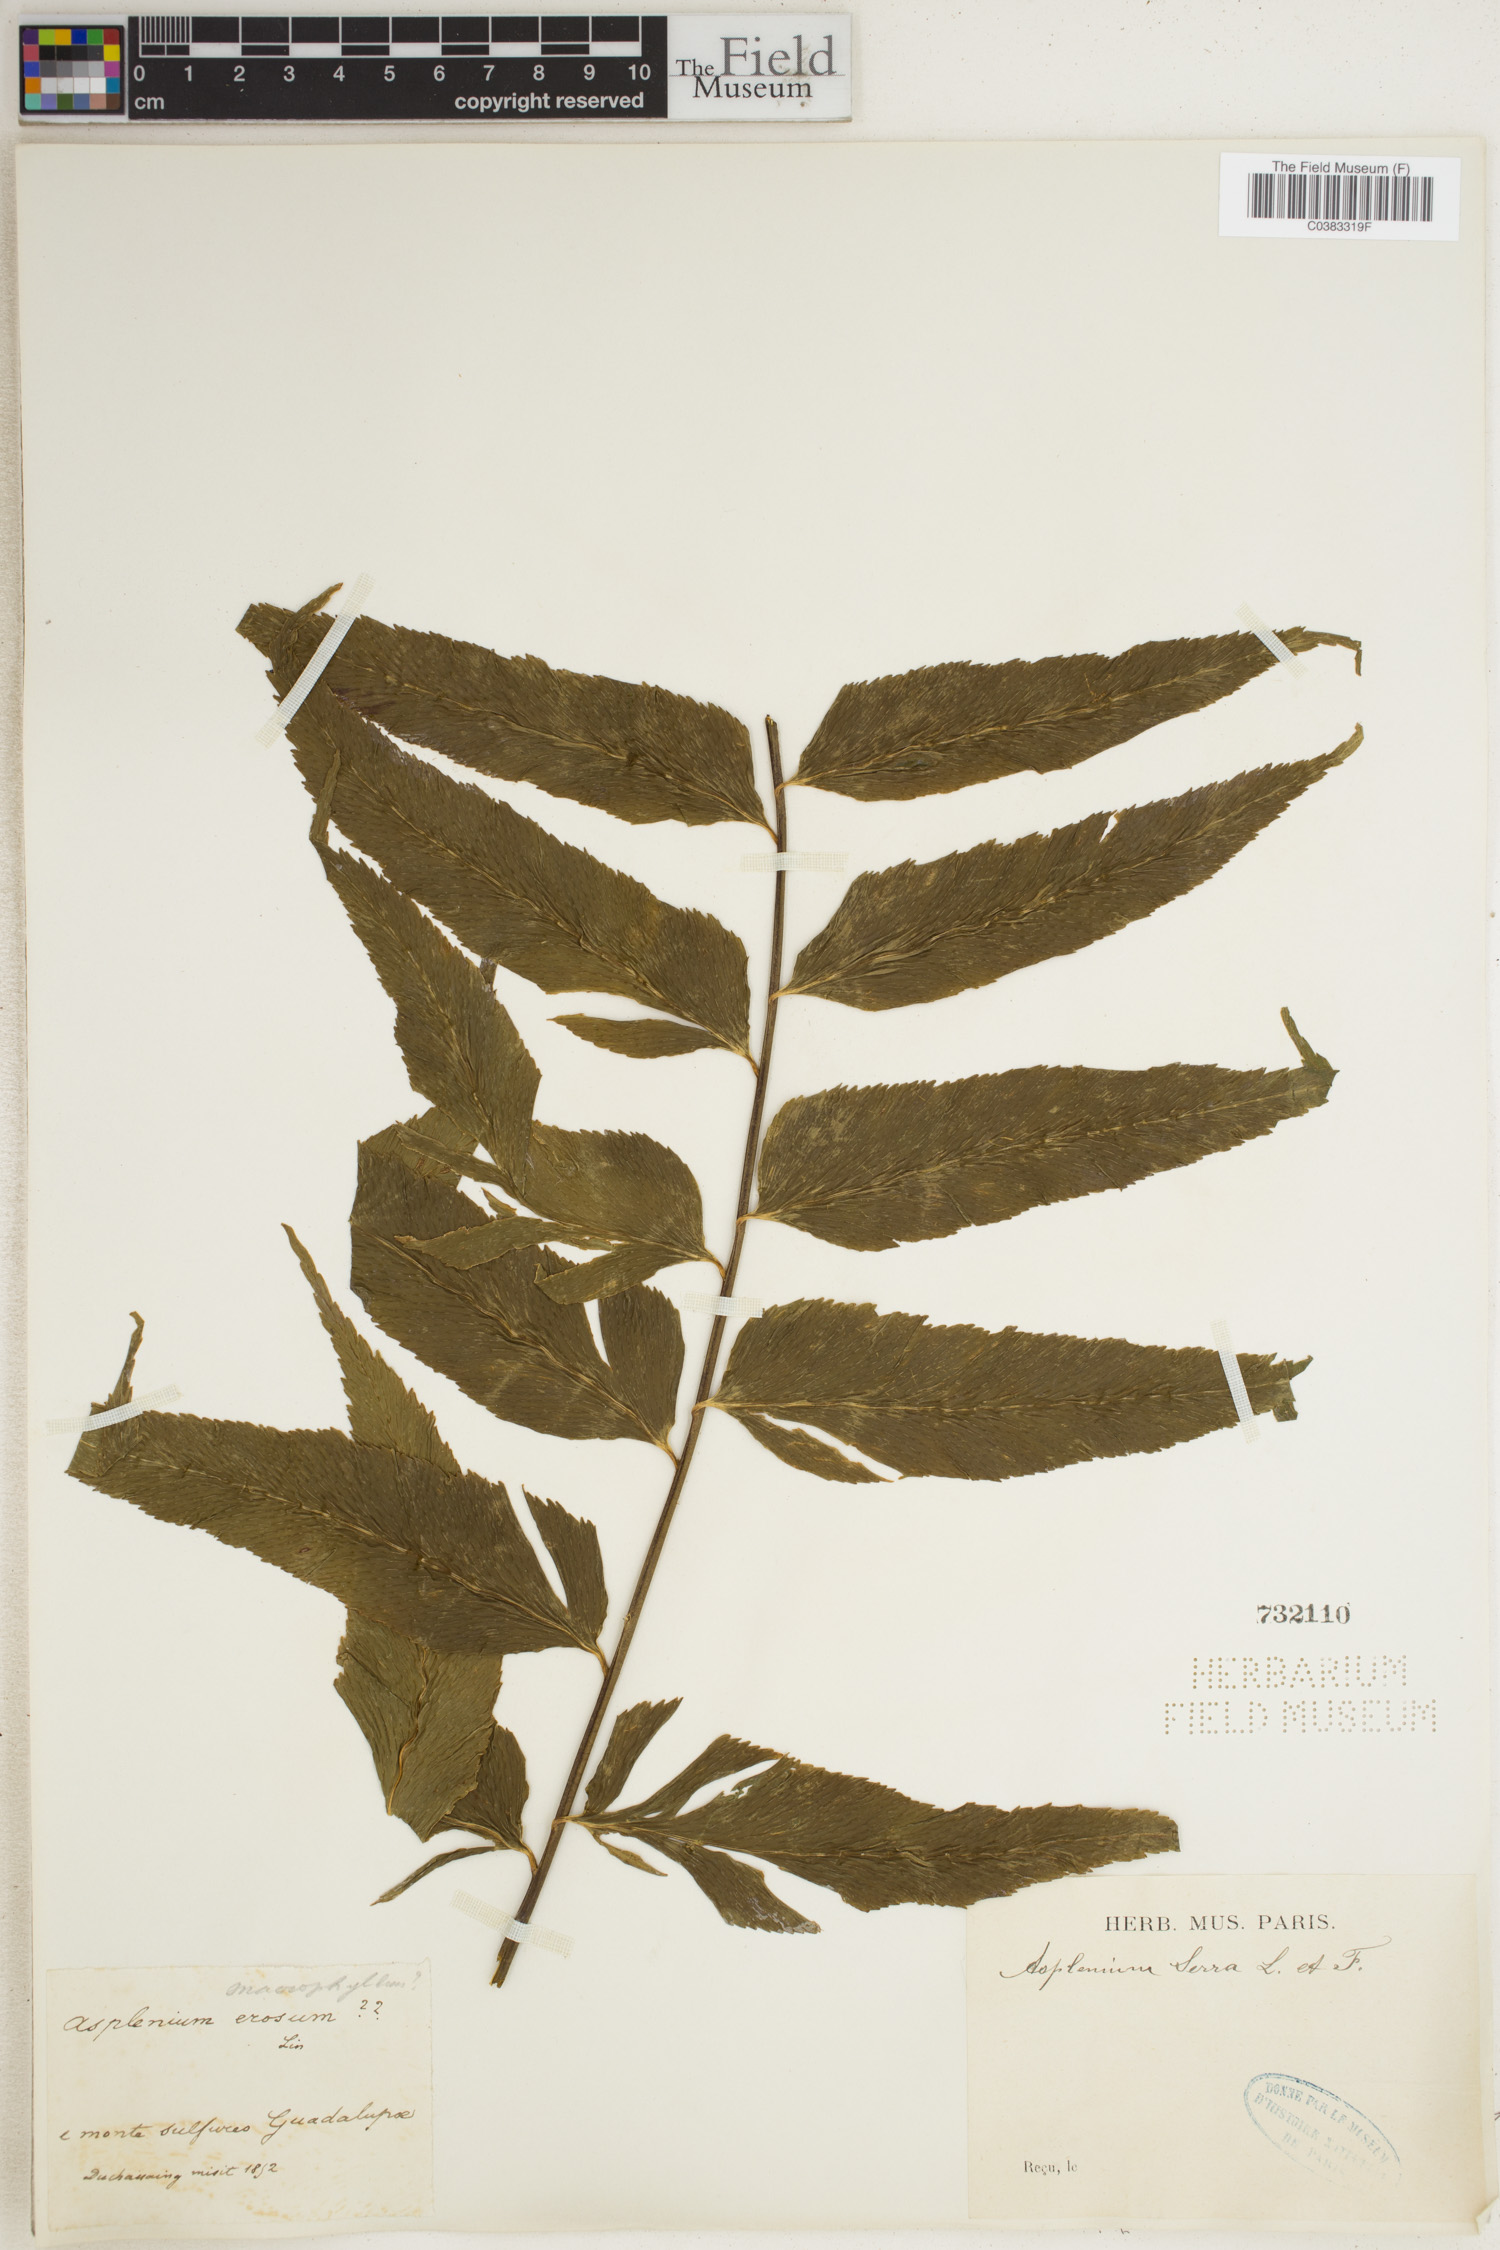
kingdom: Plantae
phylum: Tracheophyta
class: Polypodiopsida
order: Polypodiales
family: Aspleniaceae
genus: Asplenium
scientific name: Asplenium serra
